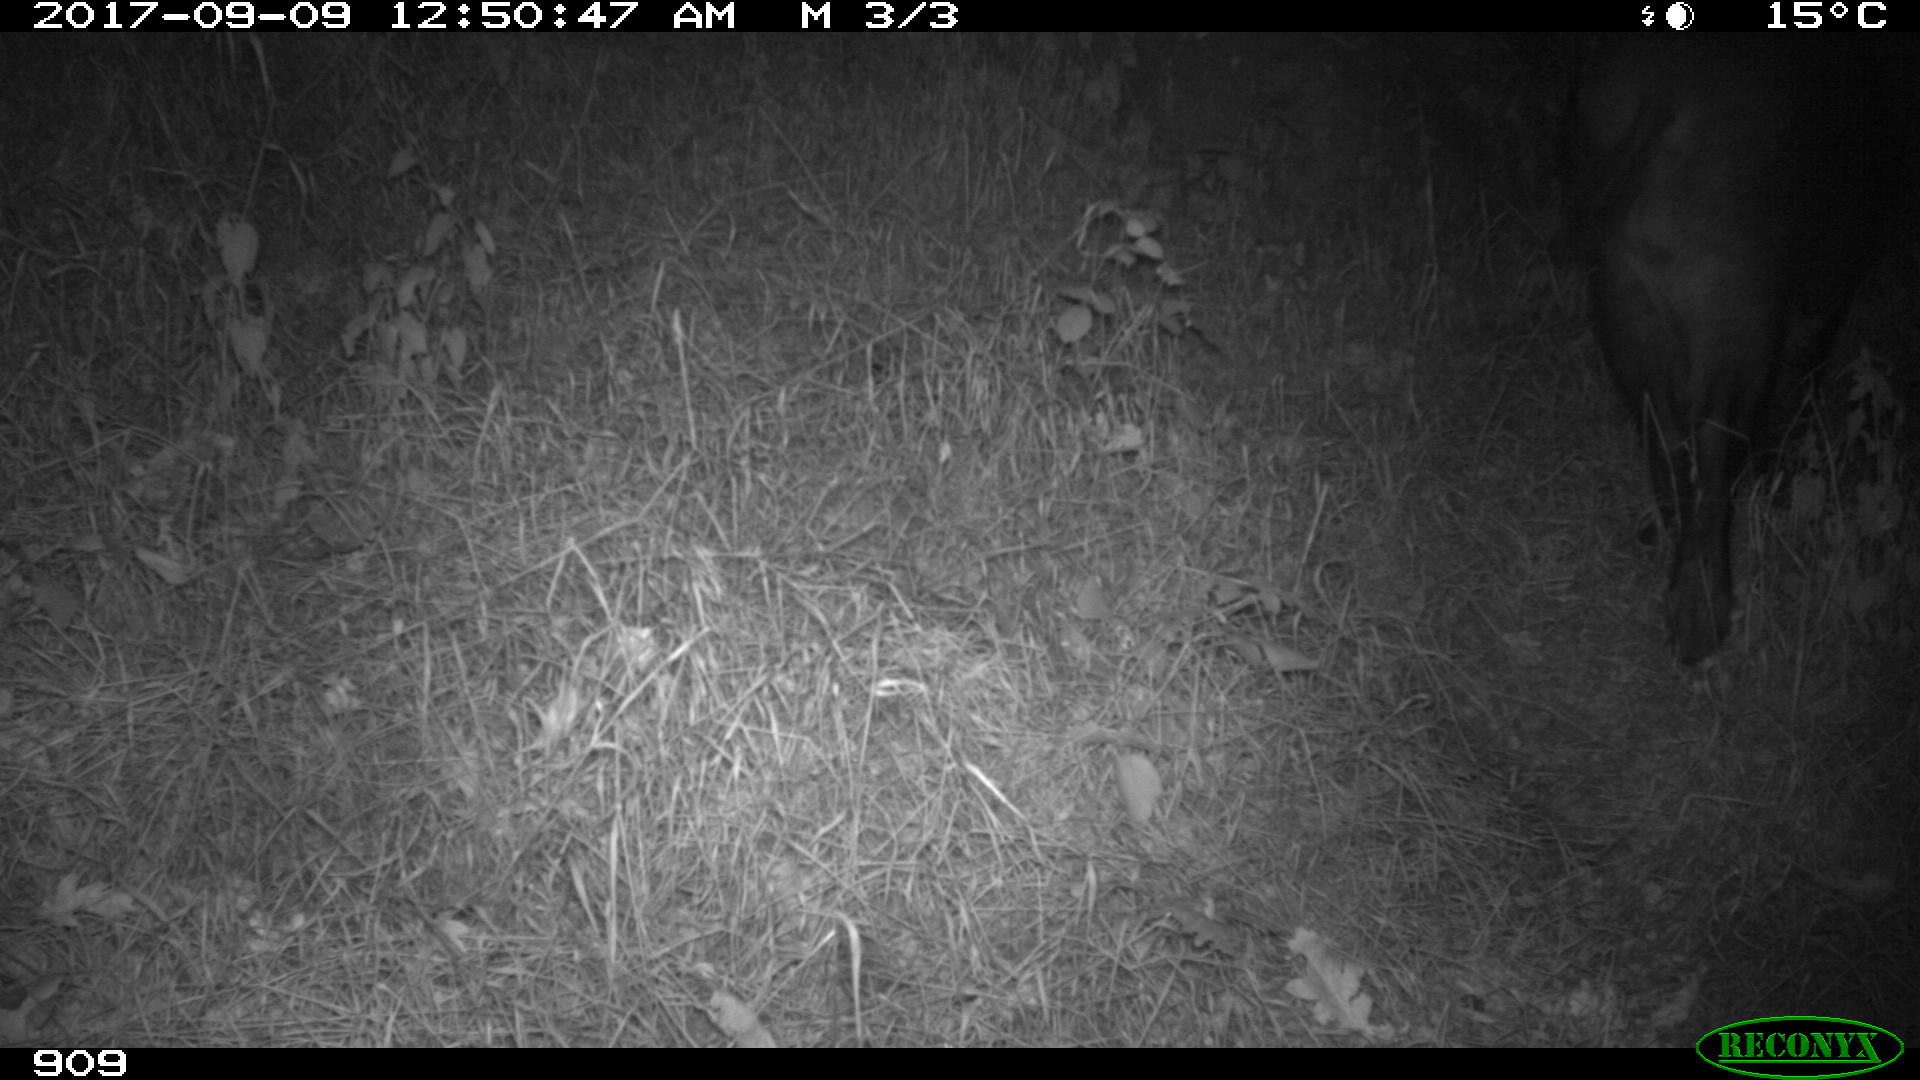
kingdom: Animalia
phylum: Chordata
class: Mammalia
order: Artiodactyla
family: Suidae
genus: Sus
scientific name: Sus scrofa
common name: Wild boar
